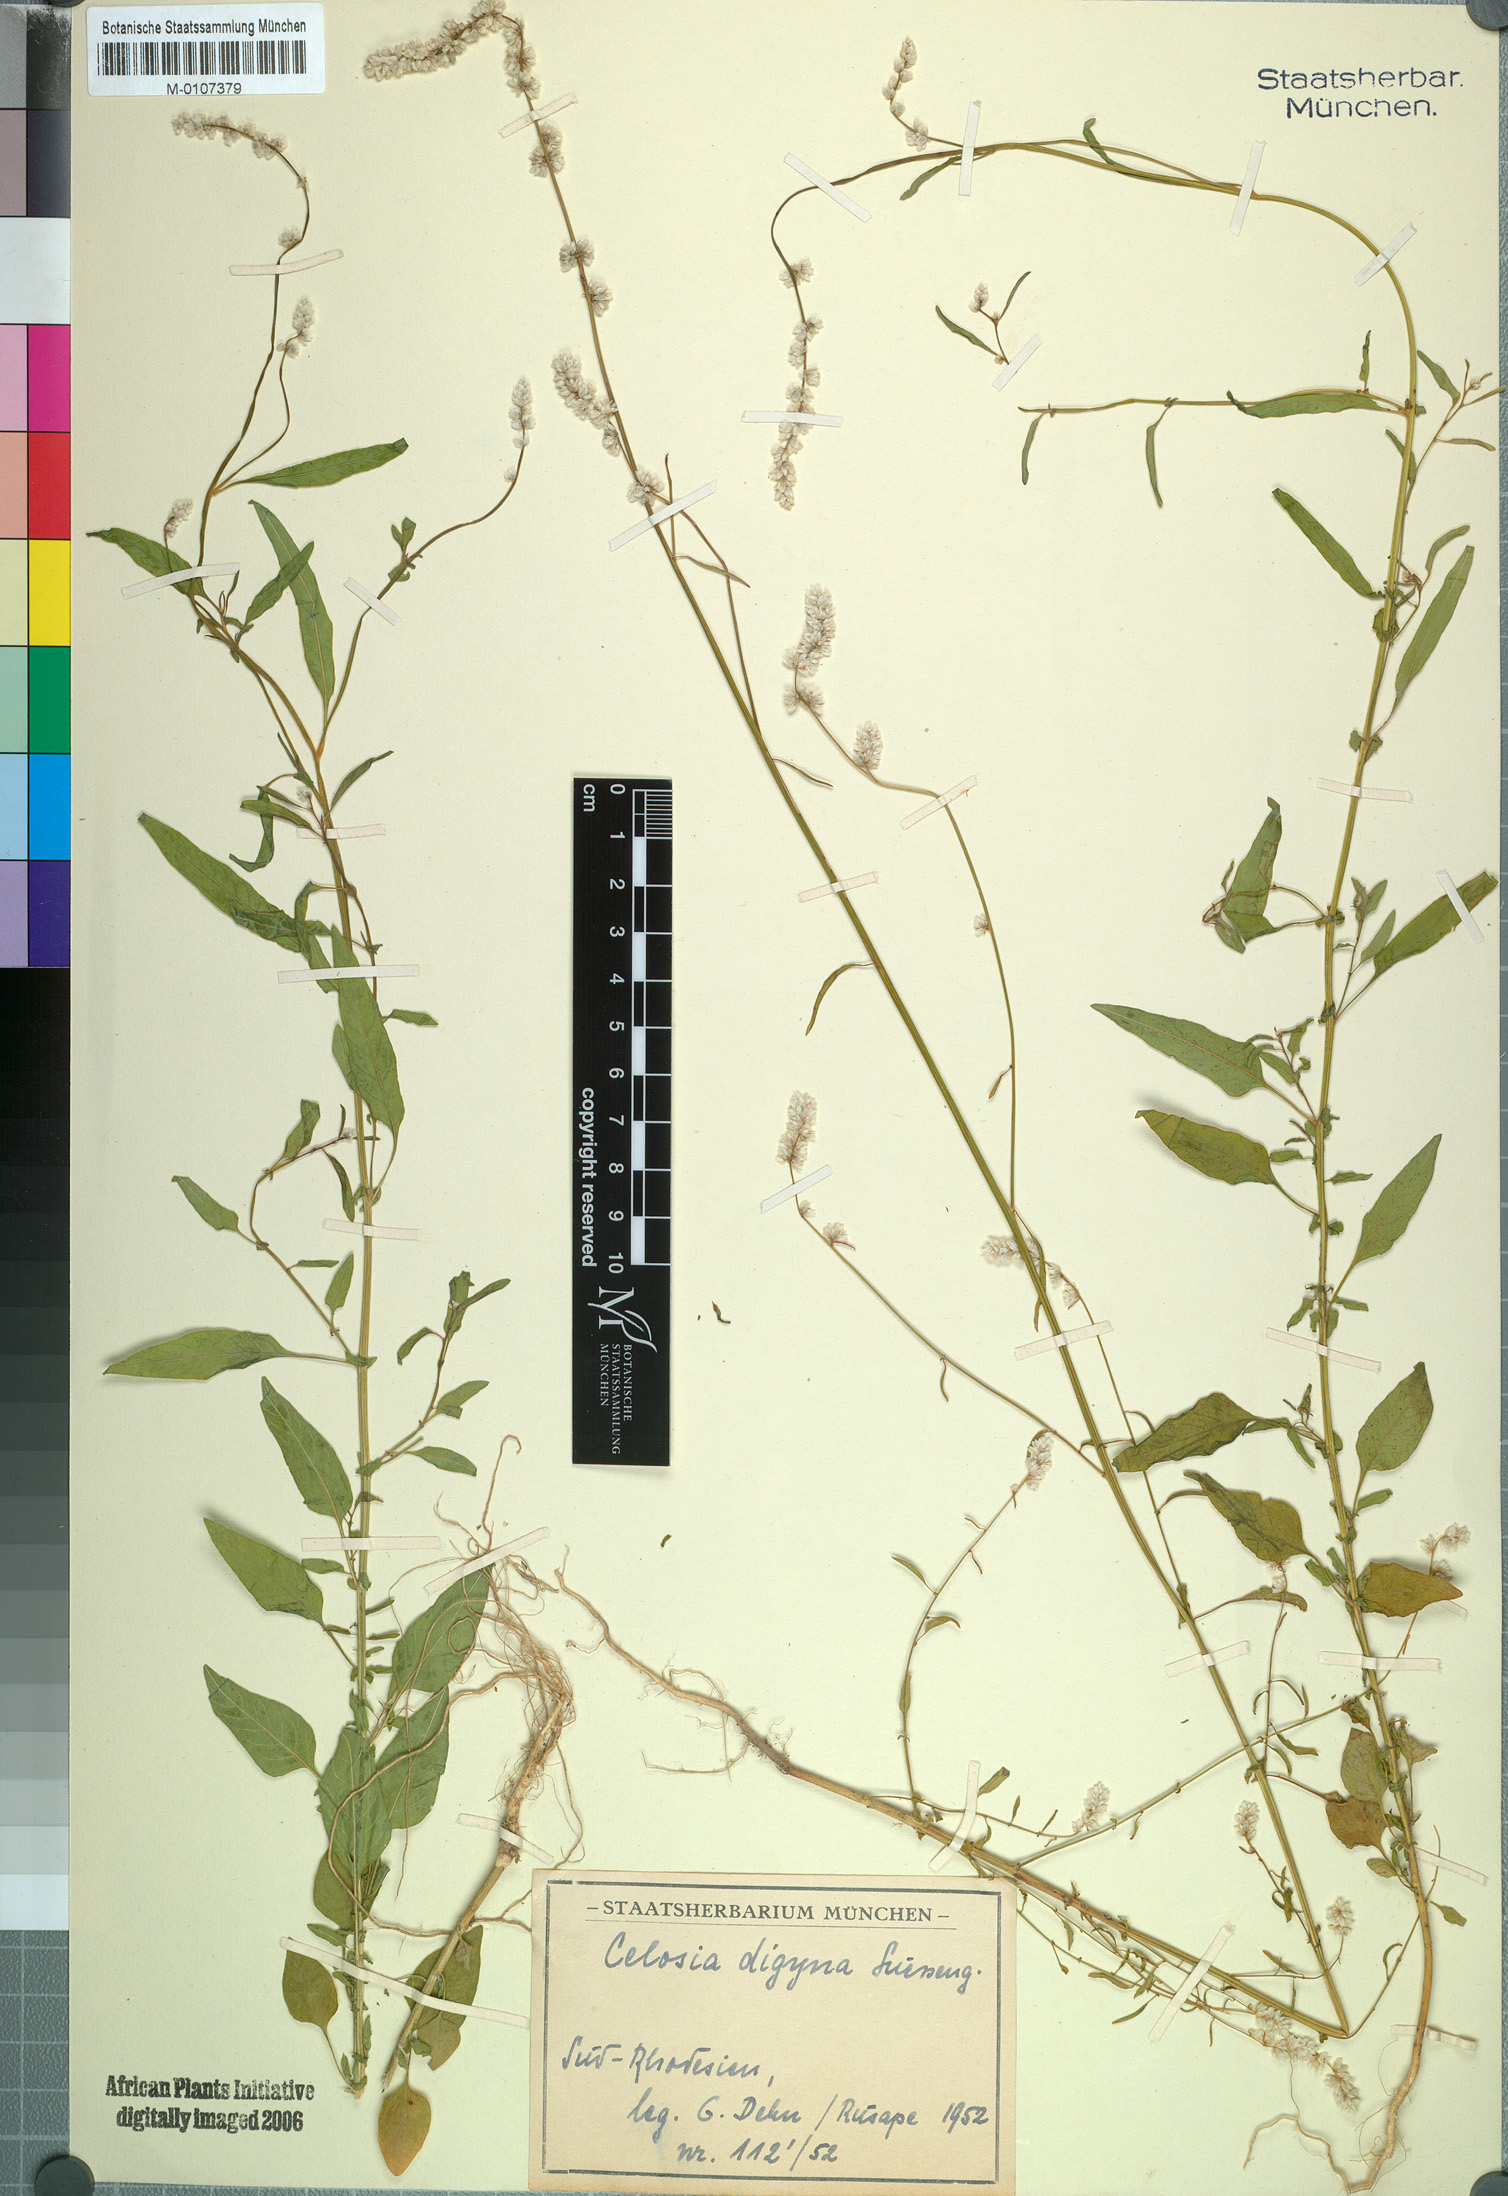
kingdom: Plantae
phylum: Tracheophyta
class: Magnoliopsida
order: Caryophyllales
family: Amaranthaceae
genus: Celosia
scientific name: Celosia trigyna
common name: Woolflower
